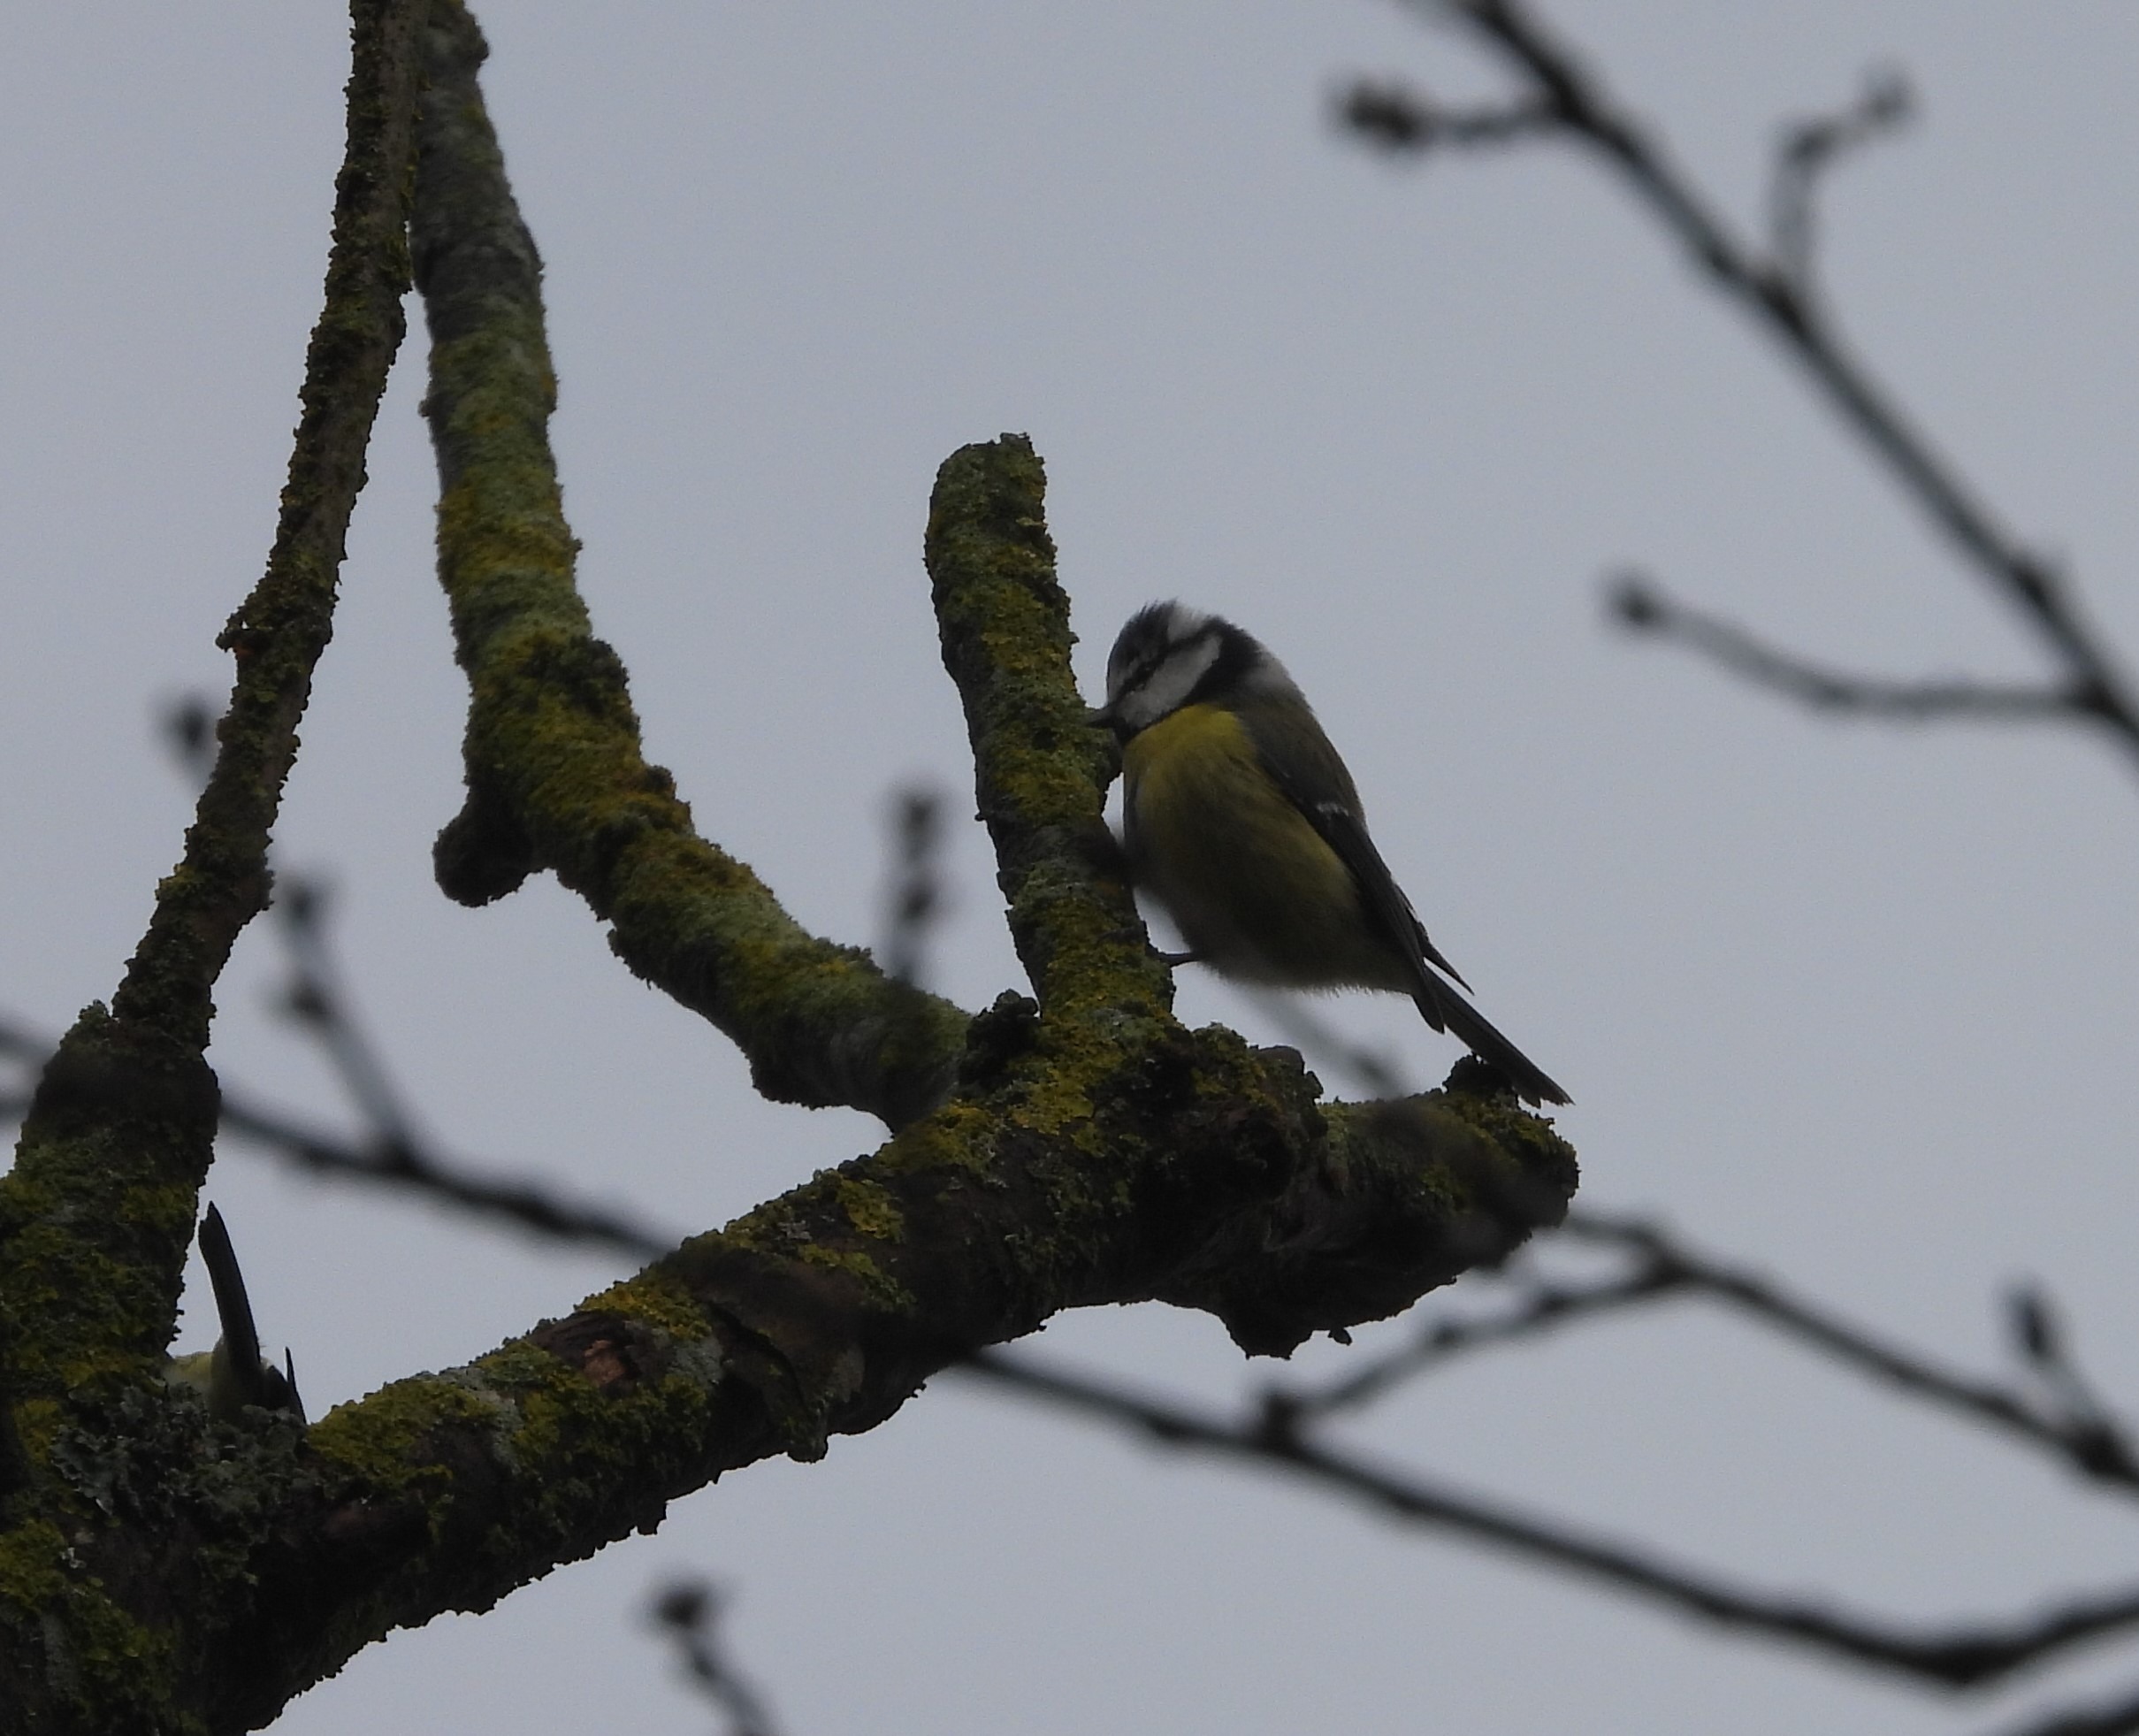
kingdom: Animalia
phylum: Chordata
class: Aves
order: Passeriformes
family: Paridae
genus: Cyanistes
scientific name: Cyanistes caeruleus
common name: Blåmejse
